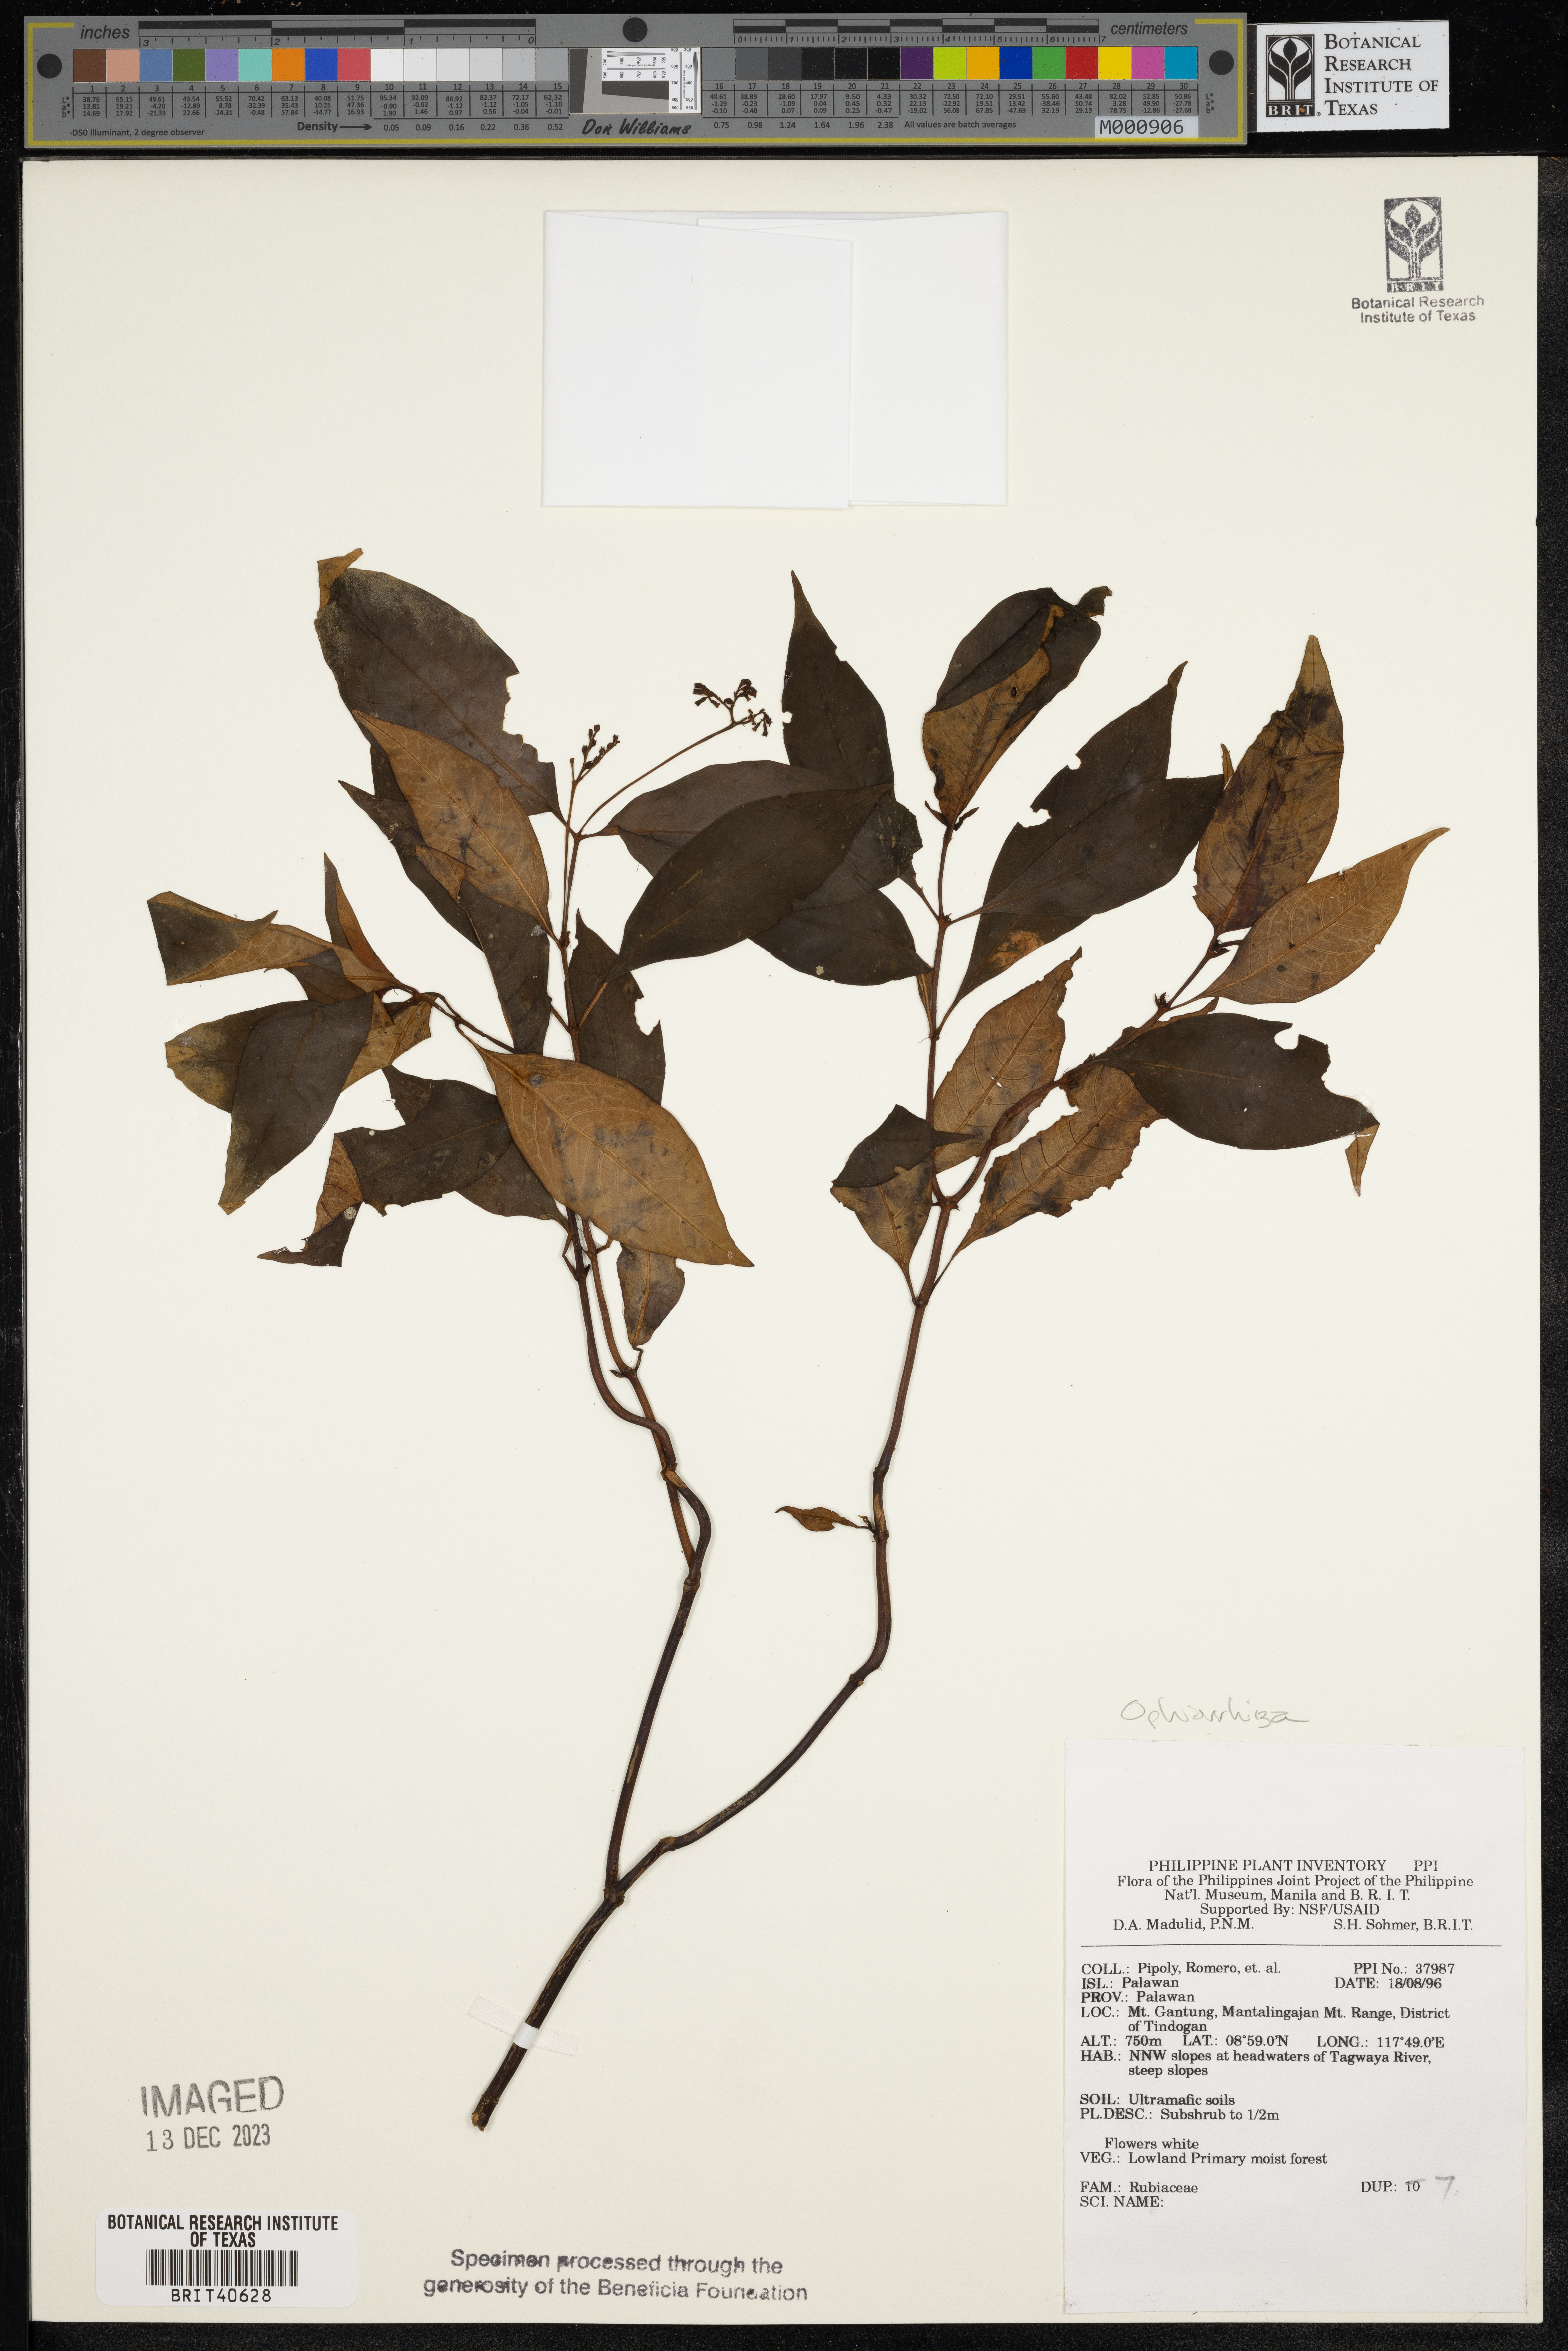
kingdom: Plantae
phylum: Tracheophyta
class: Magnoliopsida
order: Gentianales
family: Rubiaceae
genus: Ophiorrhiza
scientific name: Ophiorrhiza
